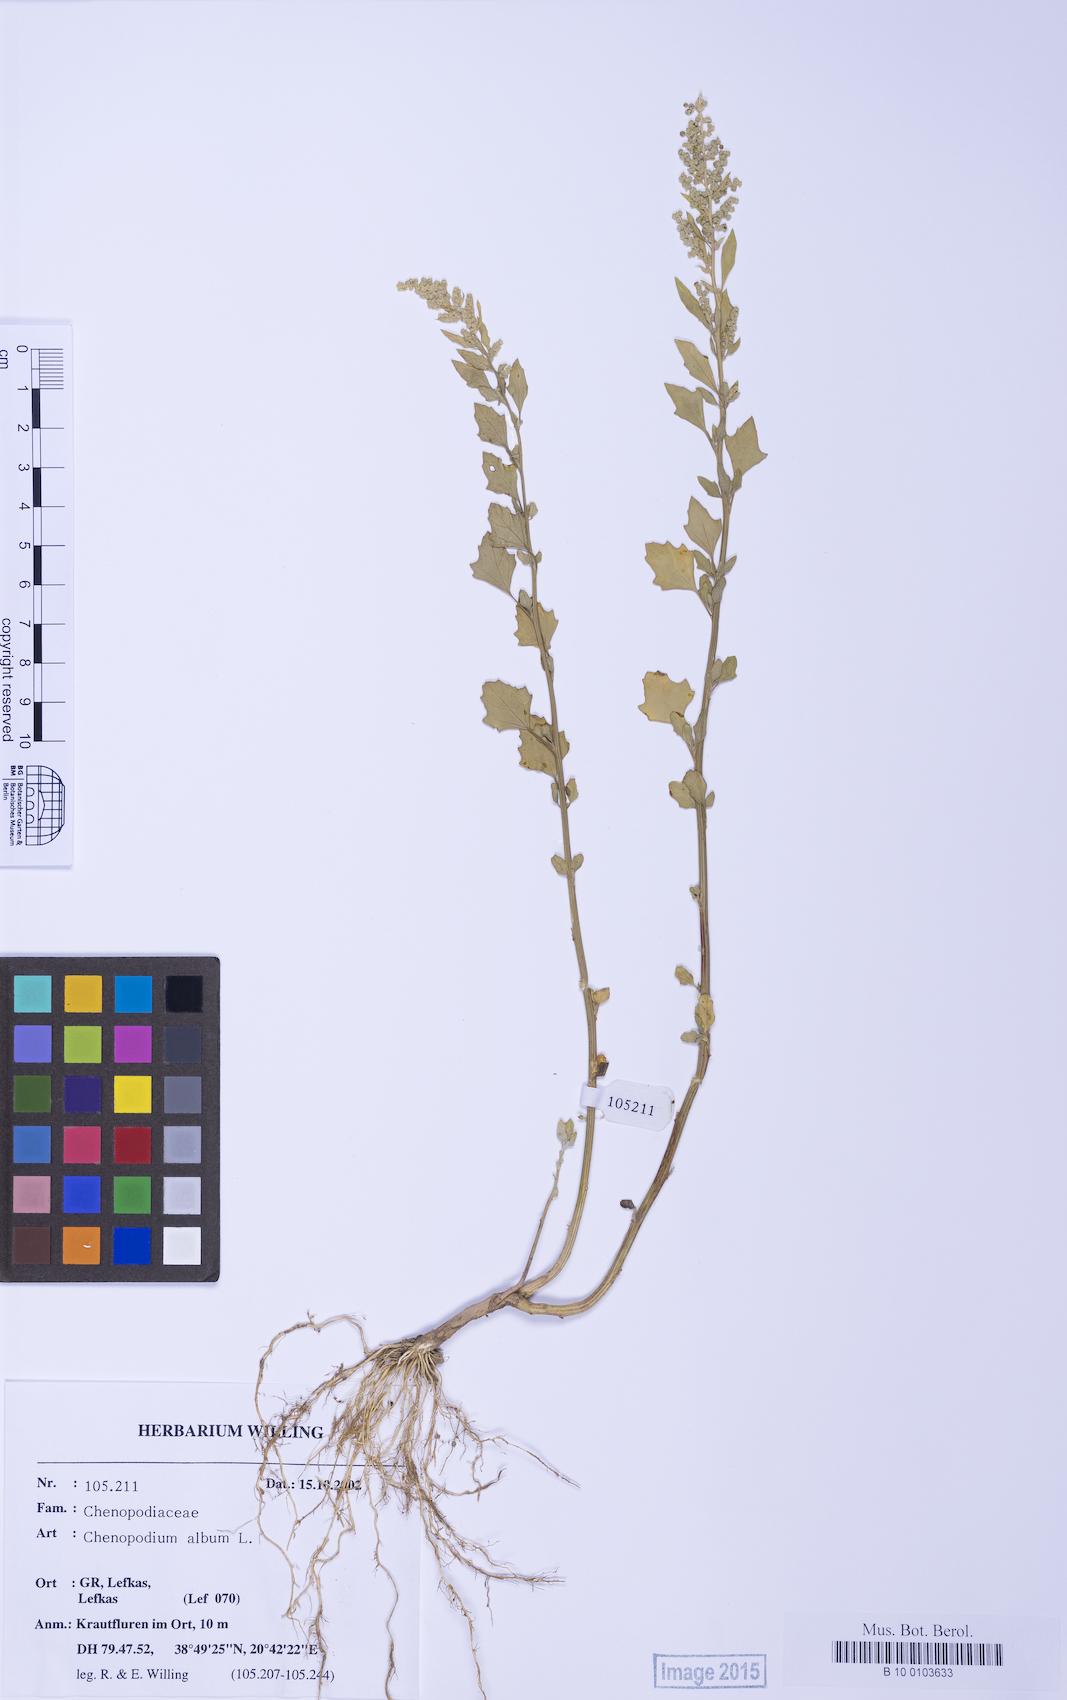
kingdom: Plantae
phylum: Tracheophyta
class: Magnoliopsida
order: Caryophyllales
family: Amaranthaceae
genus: Chenopodium
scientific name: Chenopodium betaceum
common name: Striped goosefoot
